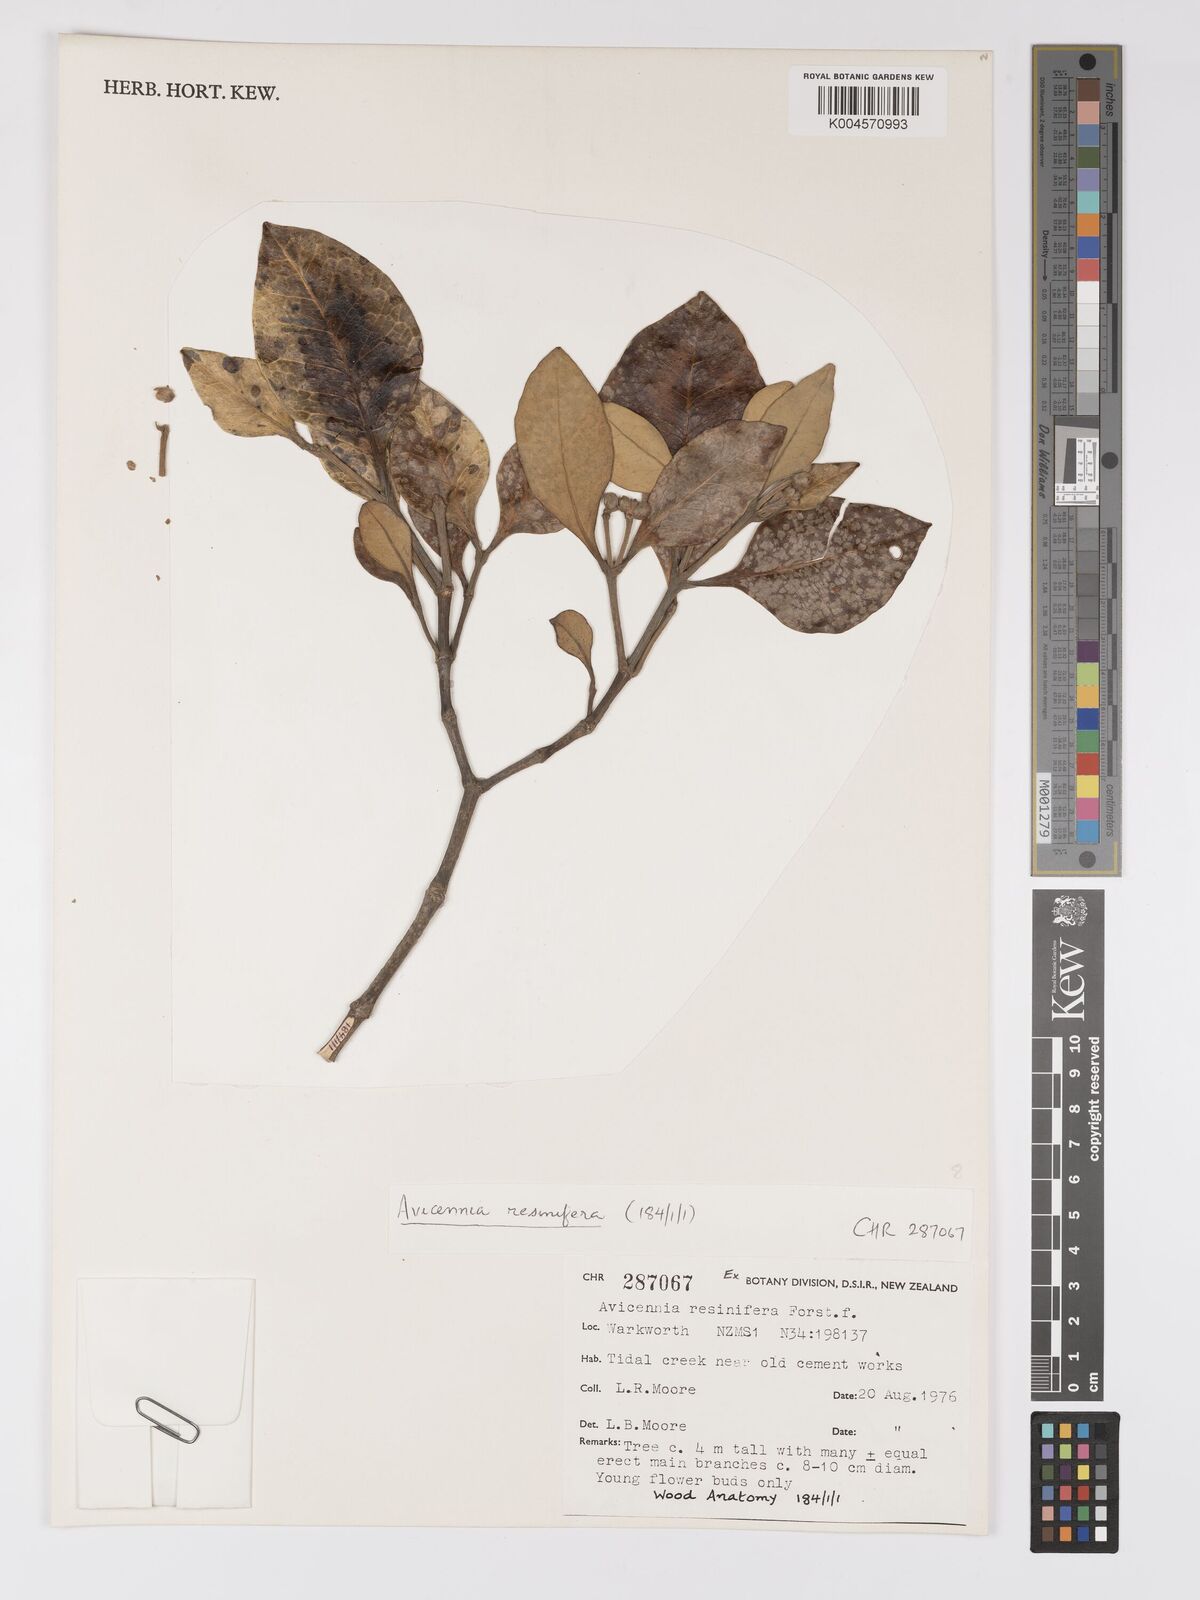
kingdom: Plantae
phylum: Tracheophyta
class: Magnoliopsida
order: Lamiales
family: Acanthaceae
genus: Avicennia
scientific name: Avicennia marina
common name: Gray mangrove
